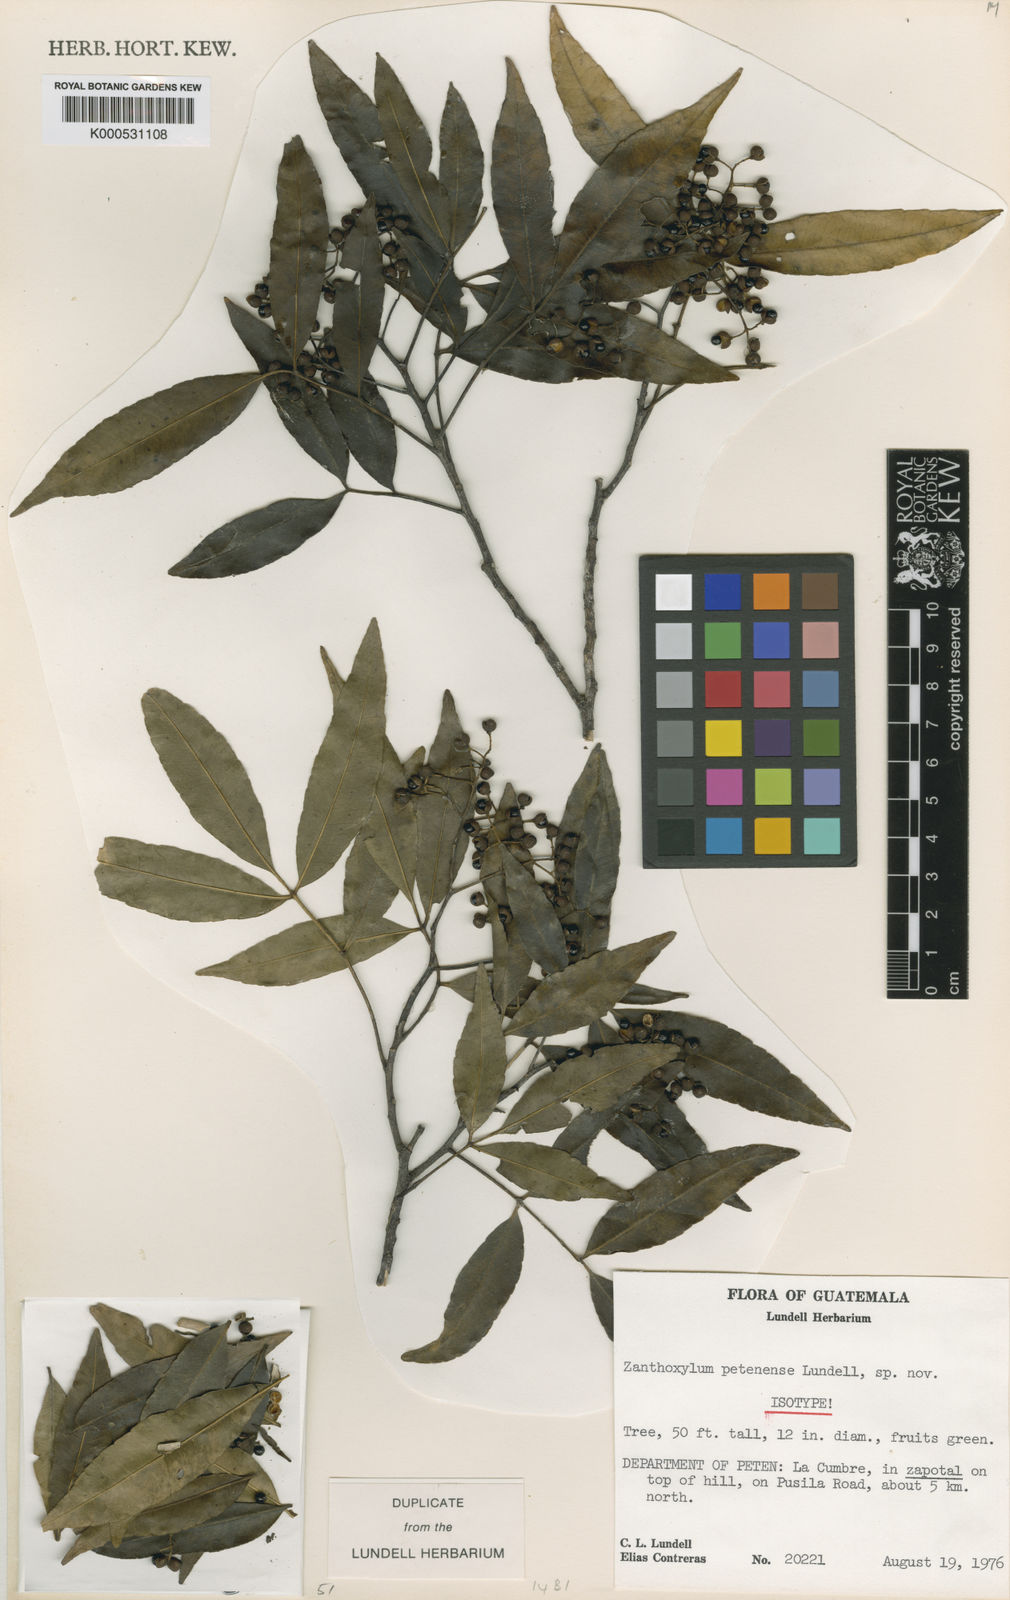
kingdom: Plantae
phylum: Tracheophyta
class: Magnoliopsida
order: Sapindales
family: Rutaceae
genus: Zanthoxylum
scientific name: Zanthoxylum petenense
